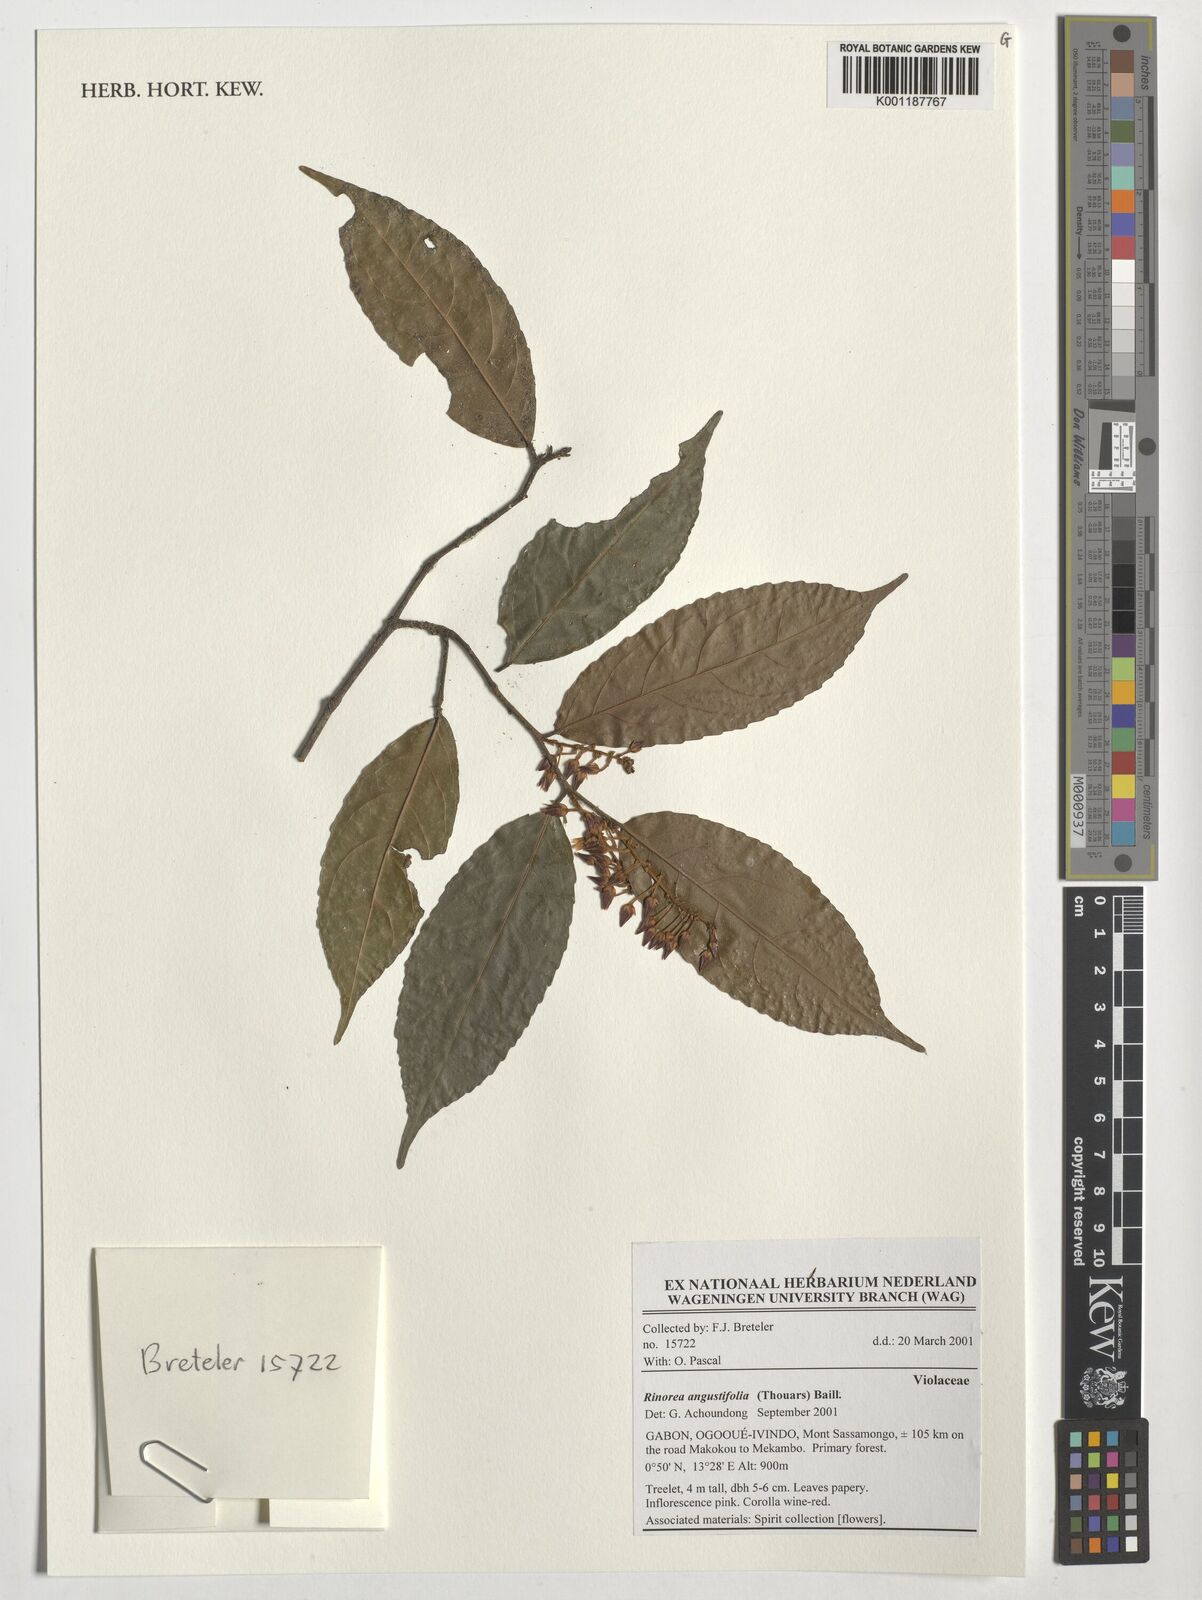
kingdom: Plantae
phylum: Tracheophyta
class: Magnoliopsida
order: Malpighiales
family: Violaceae
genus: Rinorea
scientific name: Rinorea angustifolia
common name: White violet-bush
